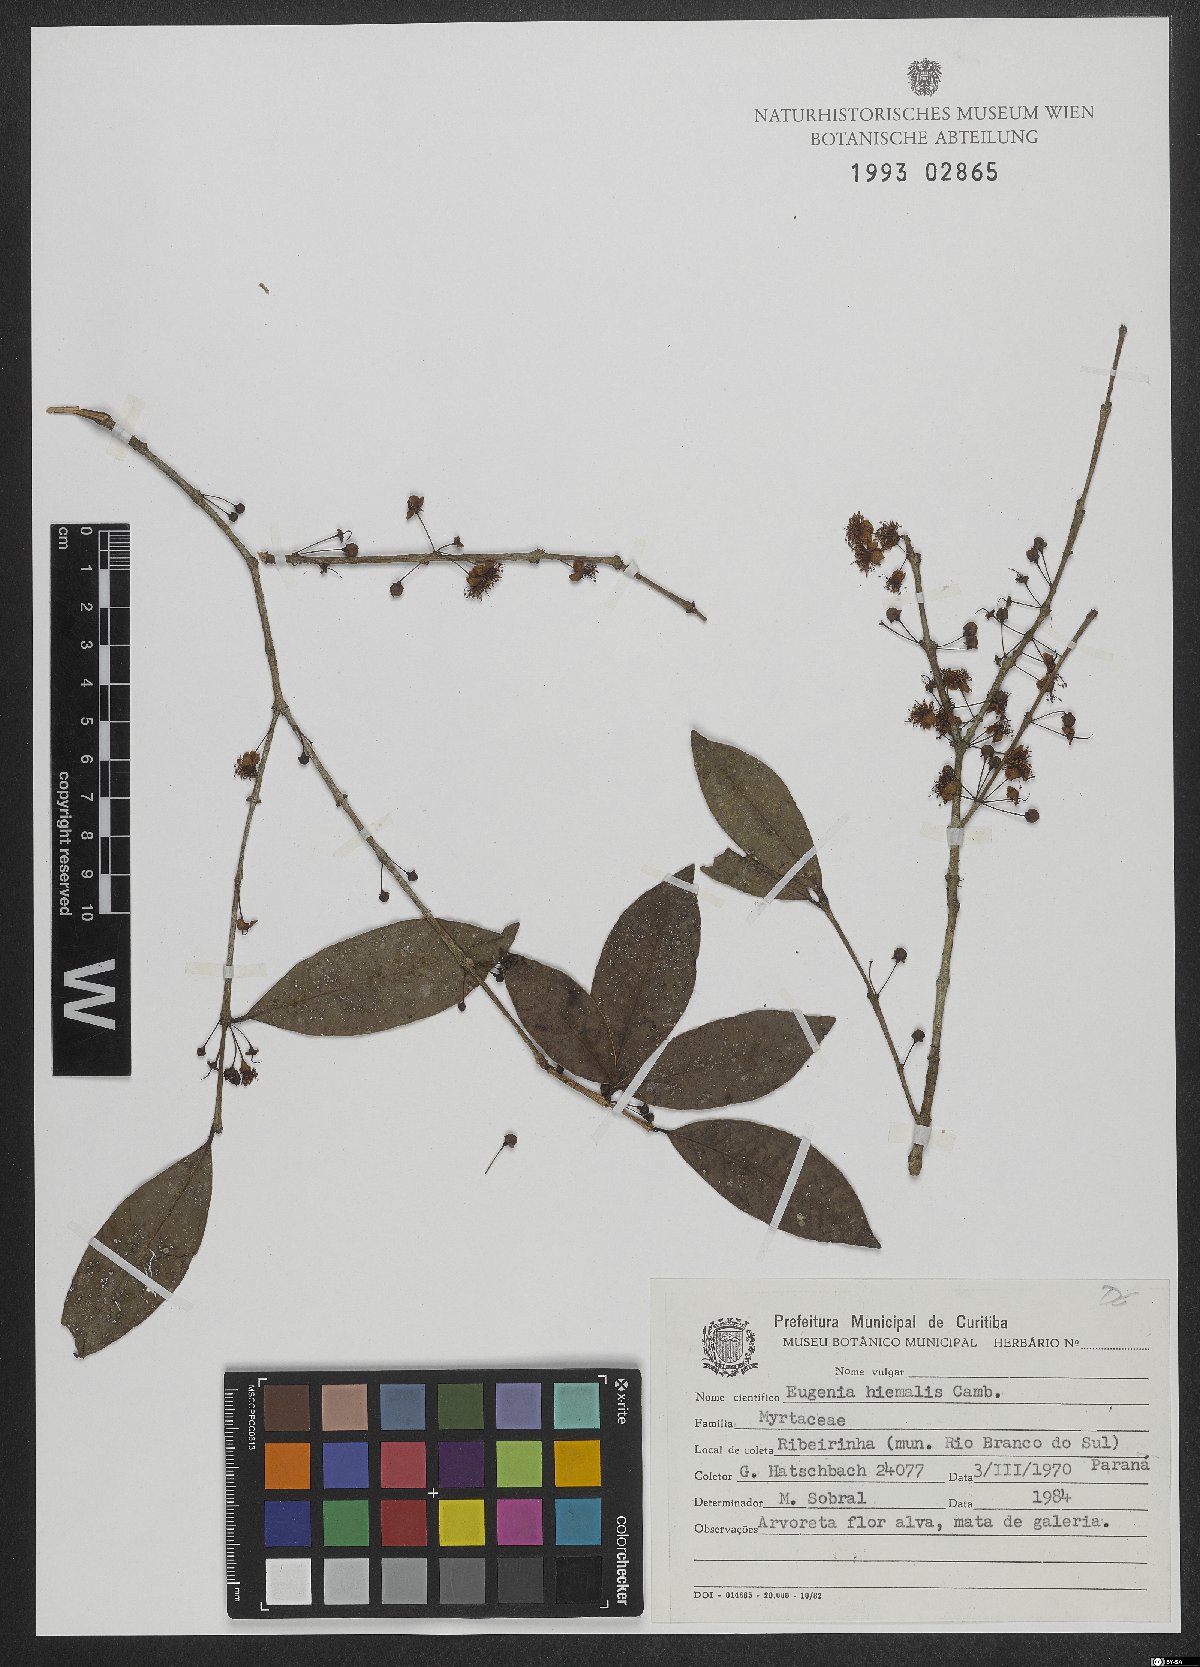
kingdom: Plantae
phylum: Tracheophyta
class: Magnoliopsida
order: Myrtales
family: Myrtaceae
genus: Eugenia
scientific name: Eugenia hiemalis
